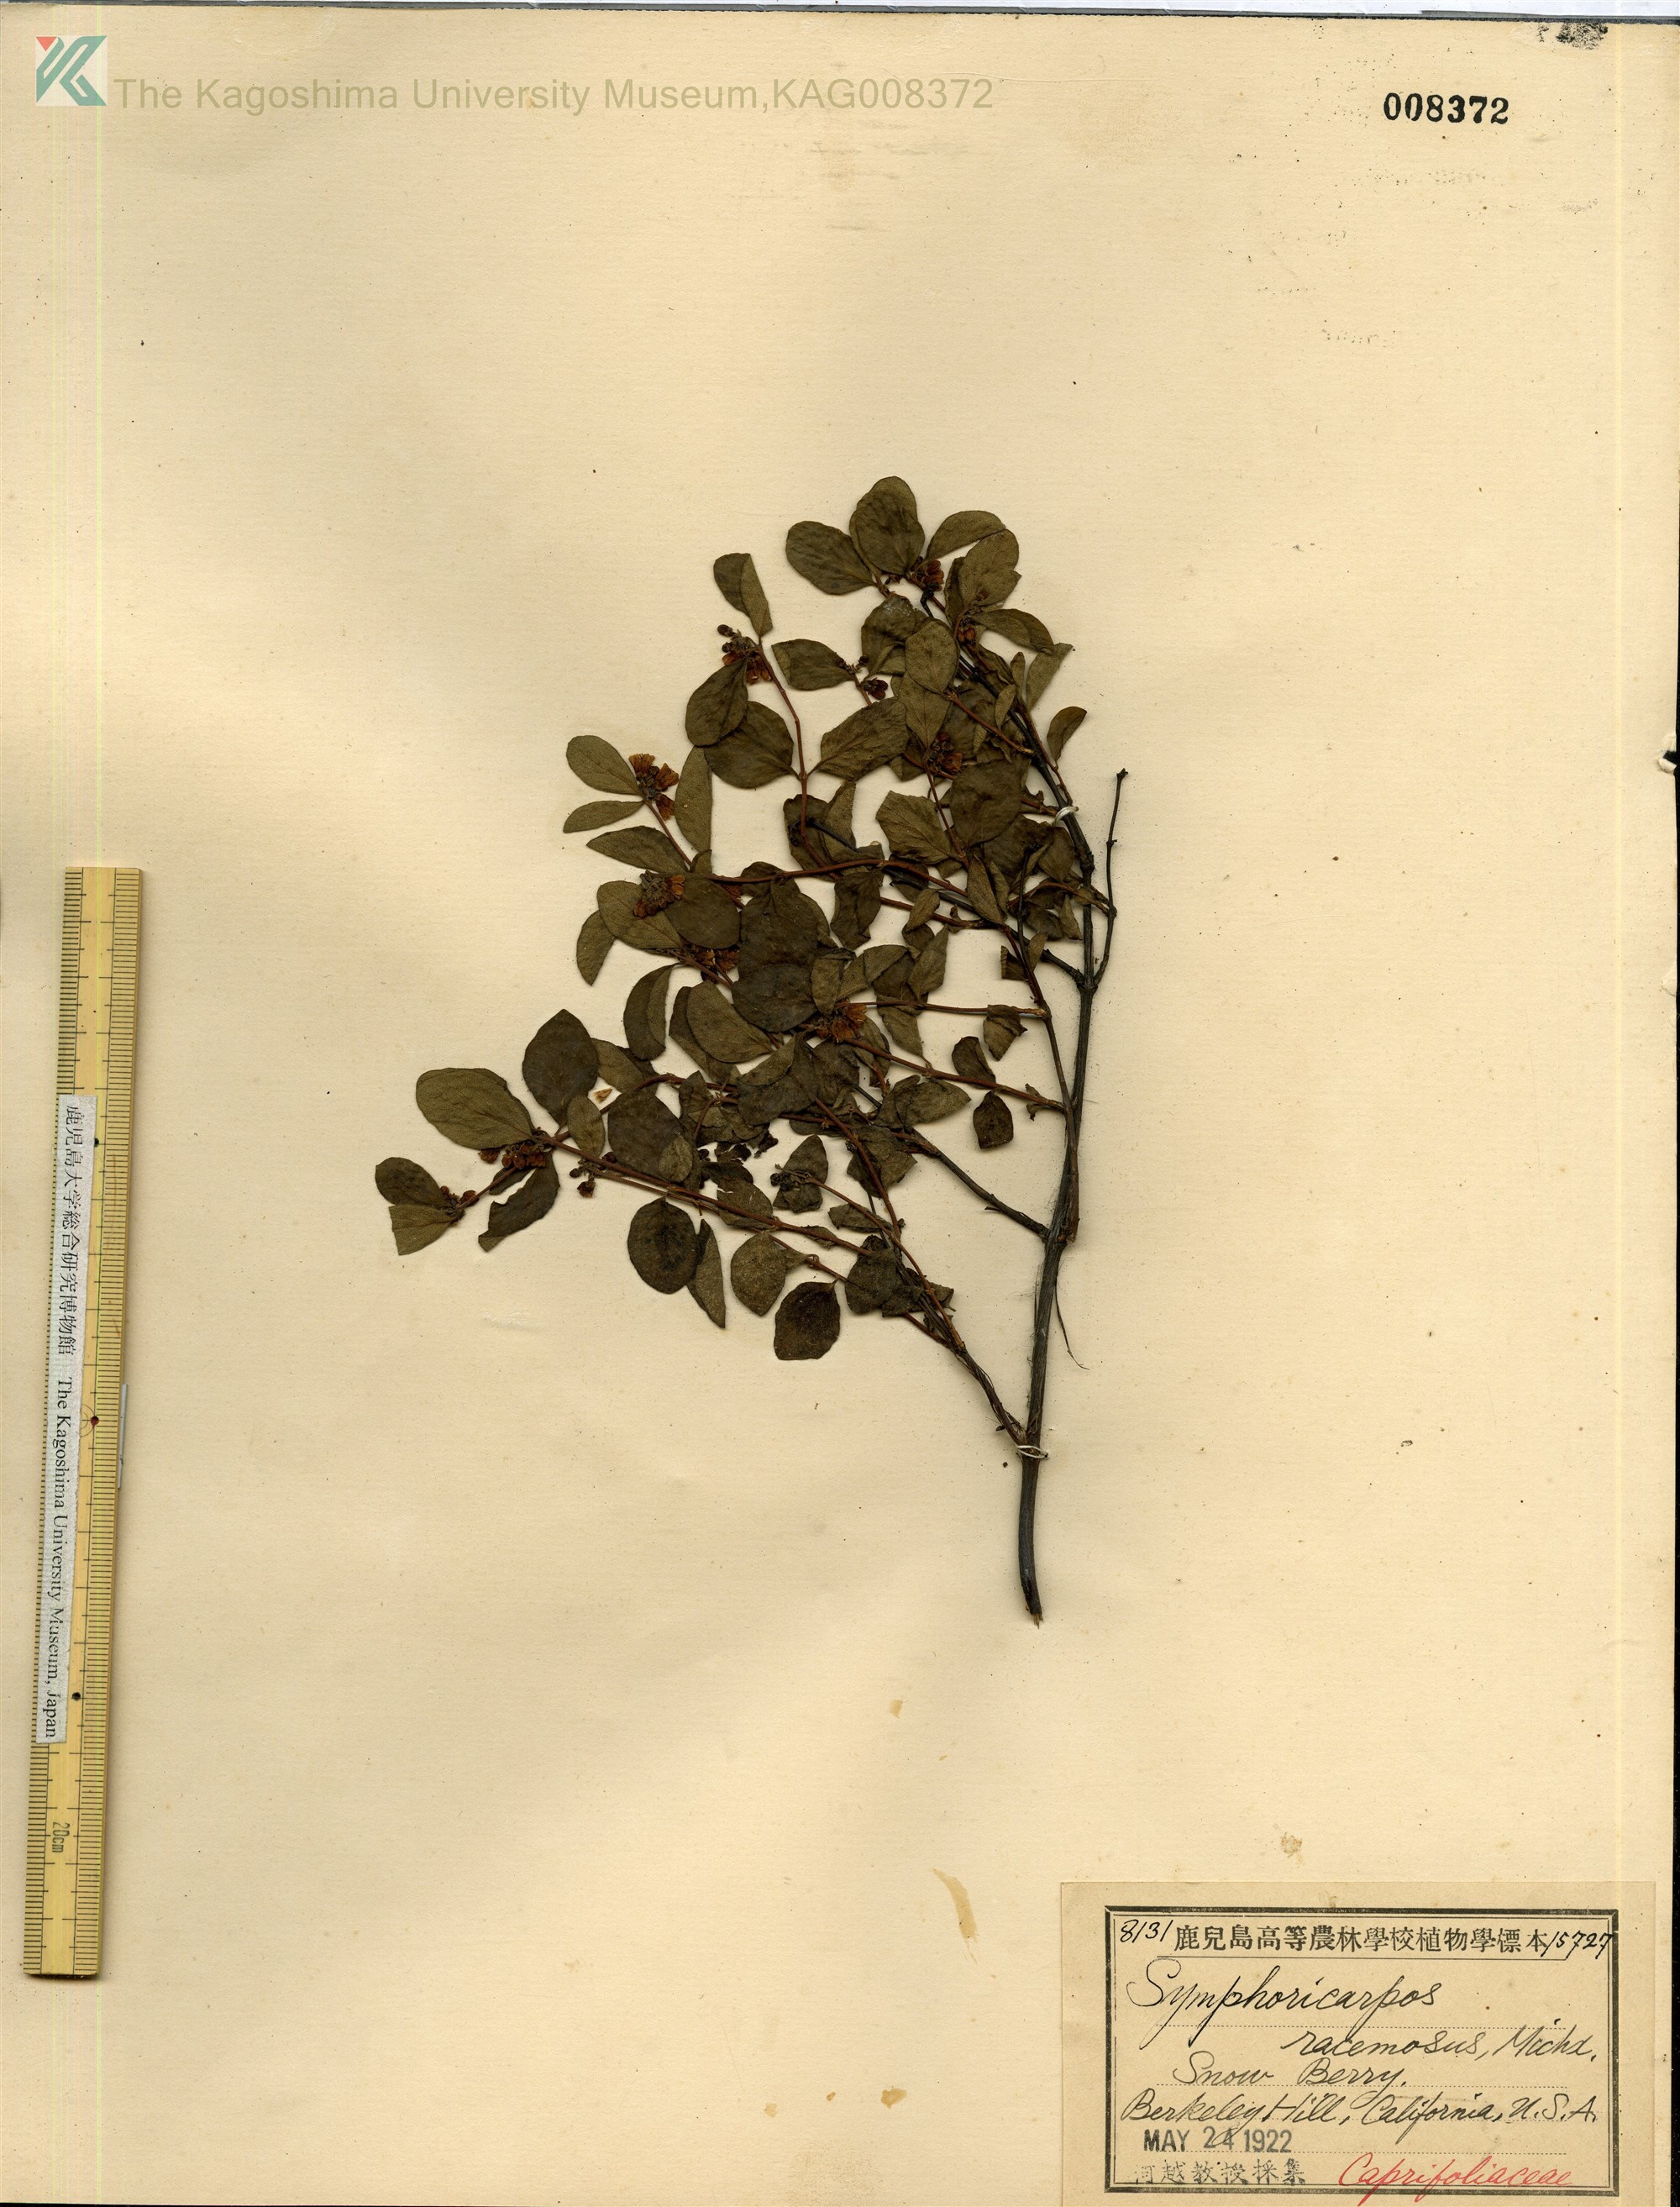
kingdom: Plantae
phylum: Tracheophyta
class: Magnoliopsida
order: Dipsacales
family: Caprifoliaceae
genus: Symphoricarpos
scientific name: Symphoricarpos albus
